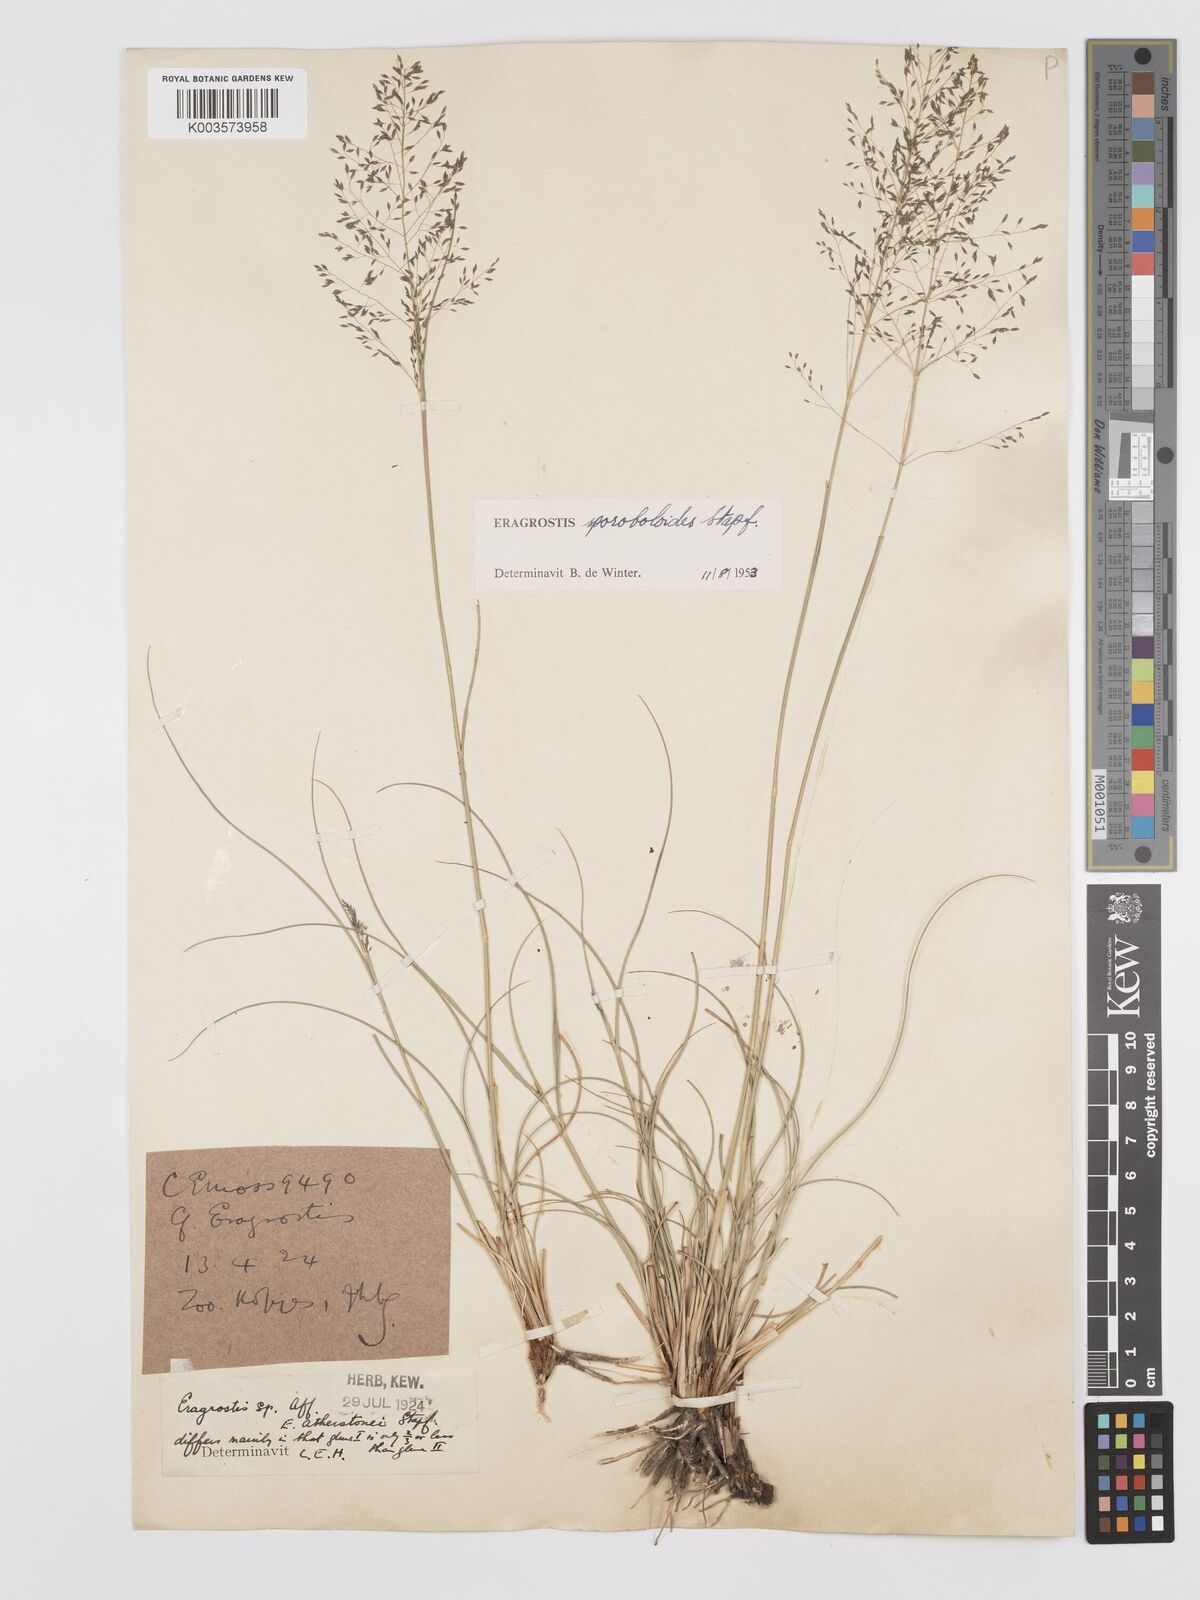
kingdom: Plantae
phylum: Tracheophyta
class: Liliopsida
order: Poales
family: Poaceae
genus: Eragrostis
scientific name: Eragrostis stapfii
